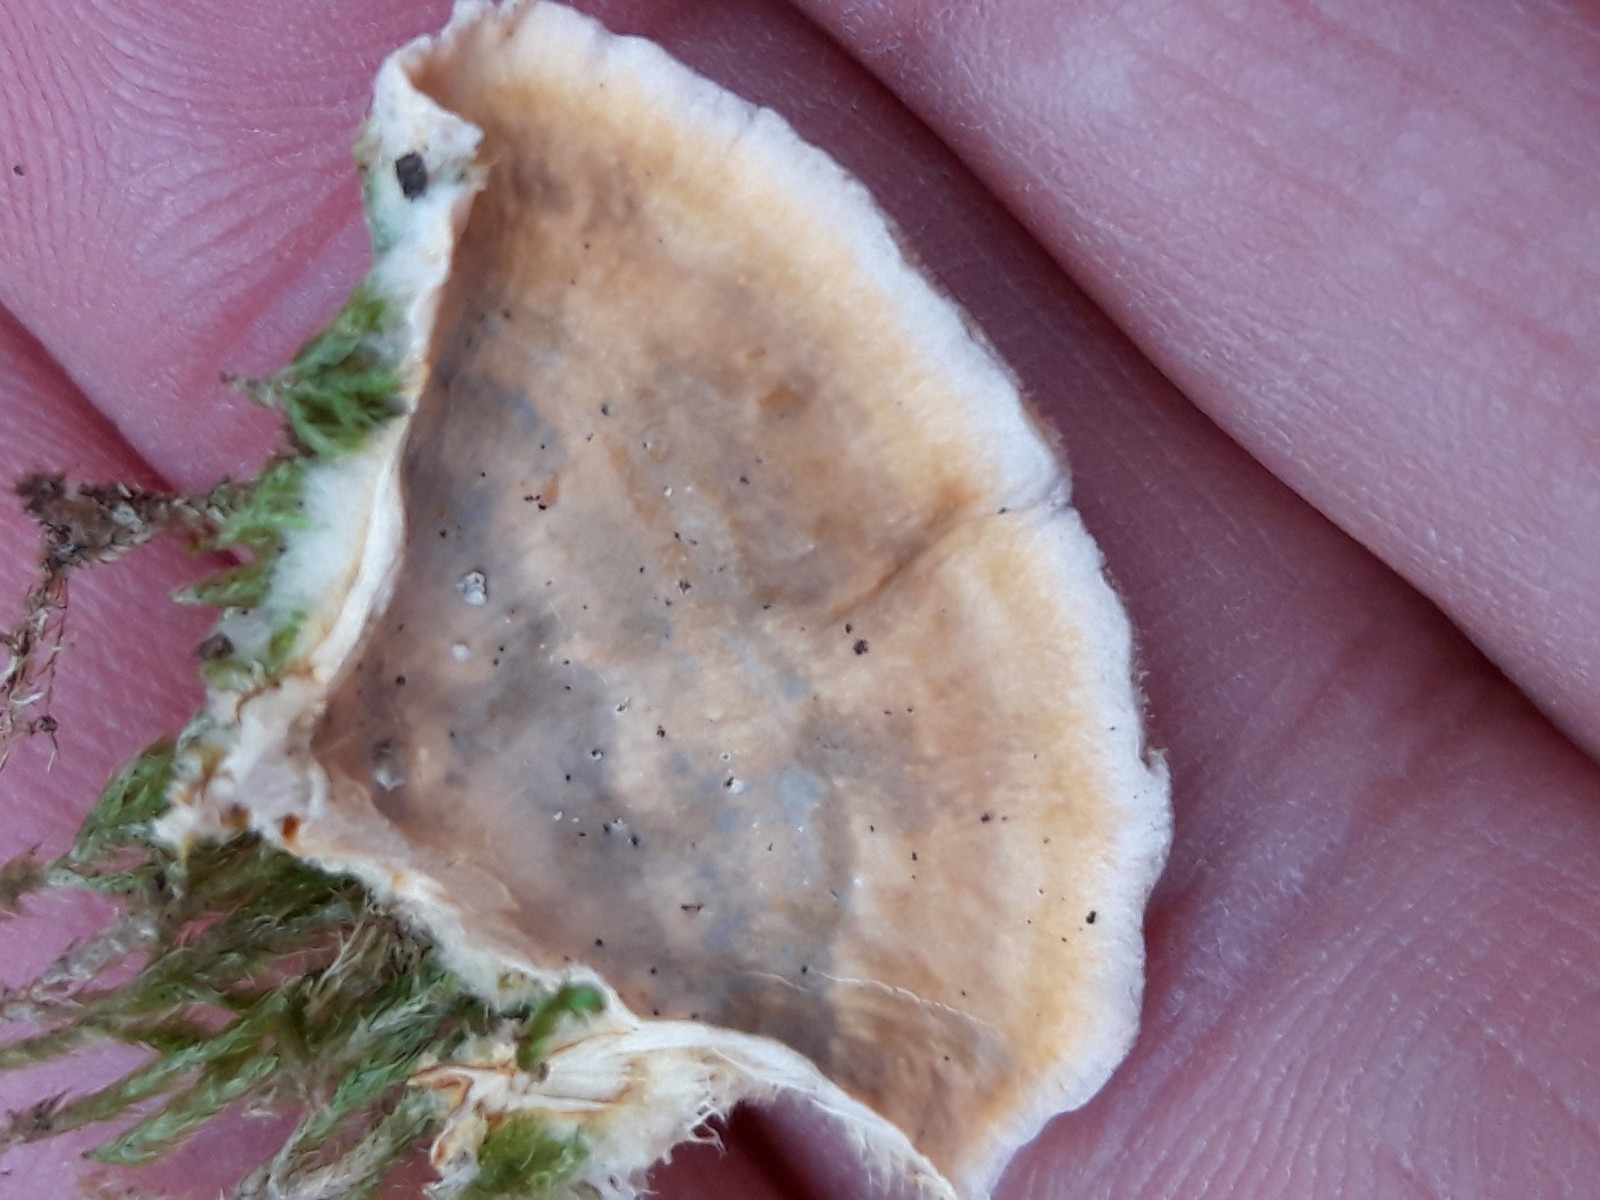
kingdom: Fungi
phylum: Basidiomycota
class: Agaricomycetes
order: Russulales
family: Stereaceae
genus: Stereum
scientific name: Stereum hirsutum
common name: håret lædersvamp
